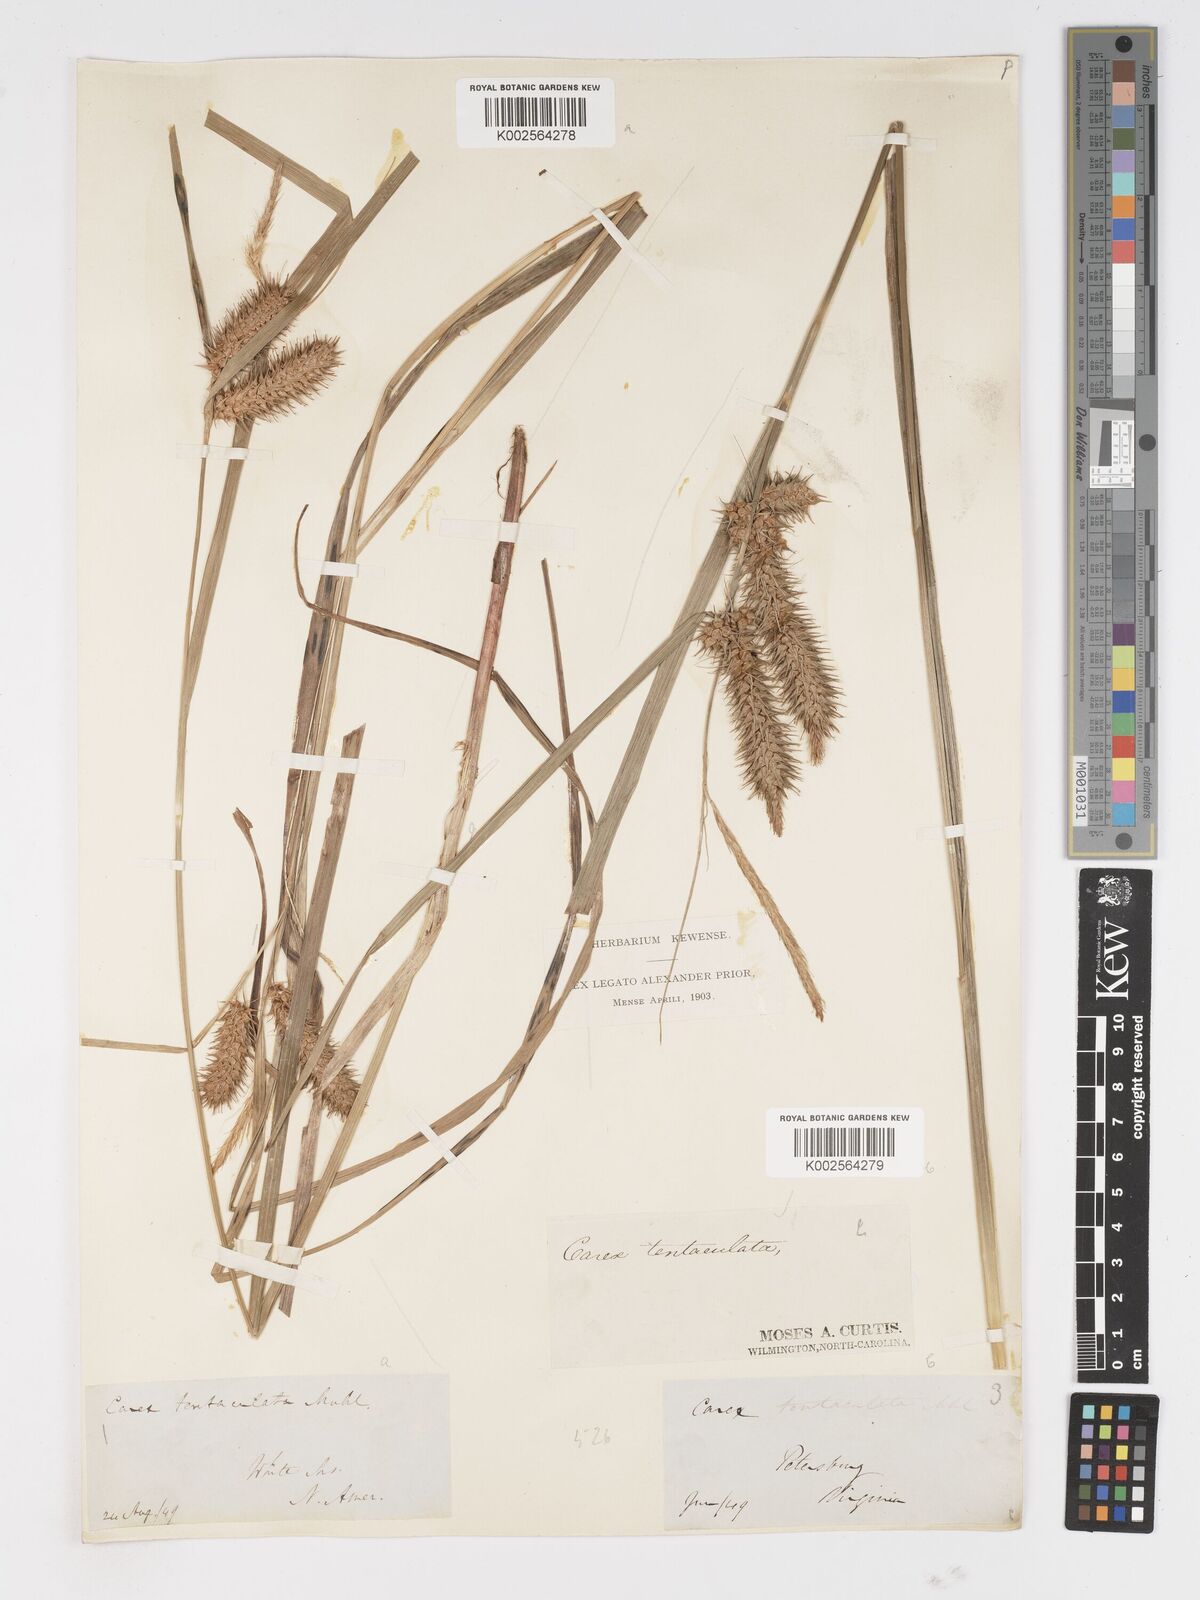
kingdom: Plantae
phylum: Tracheophyta
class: Liliopsida
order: Poales
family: Cyperaceae
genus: Carex
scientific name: Carex lurida
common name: Sallow sedge
